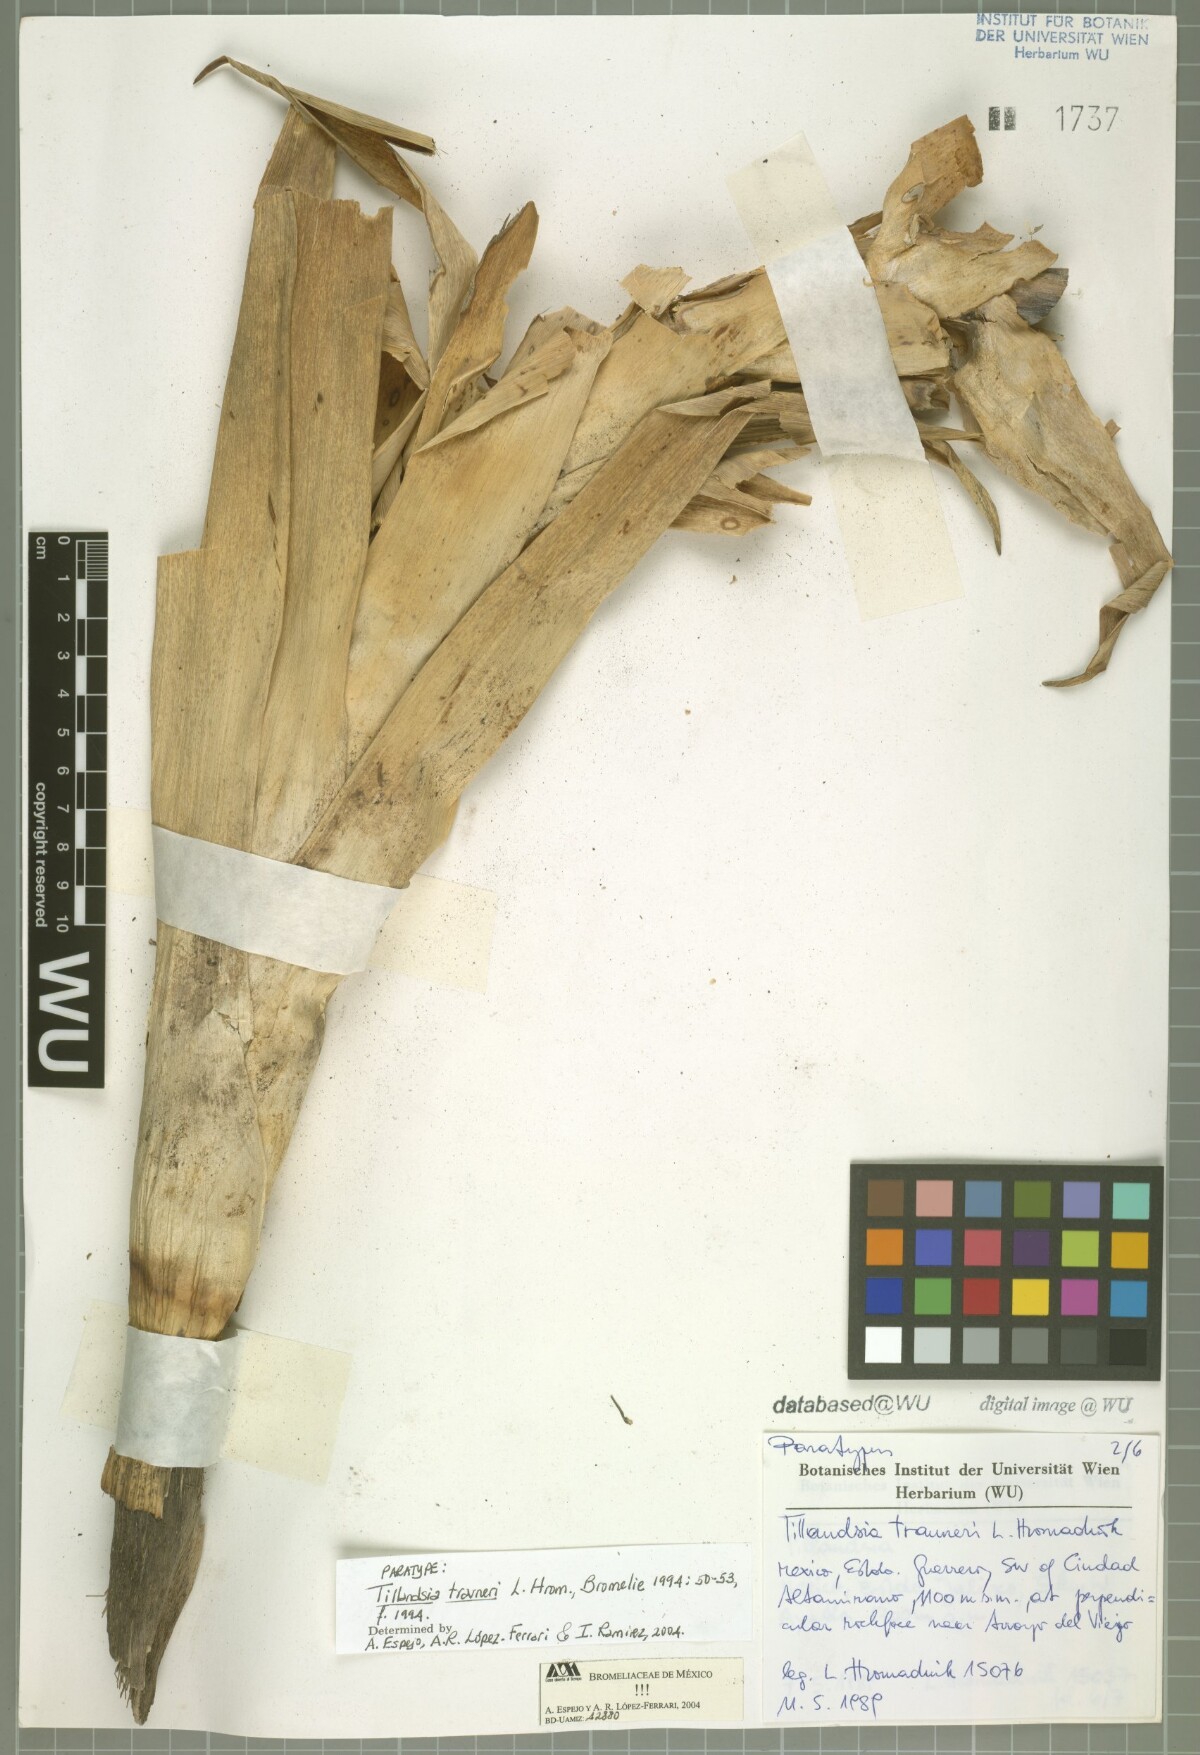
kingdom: Plantae
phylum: Tracheophyta
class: Liliopsida
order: Poales
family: Bromeliaceae
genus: Tillandsia
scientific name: Tillandsia trauneri
